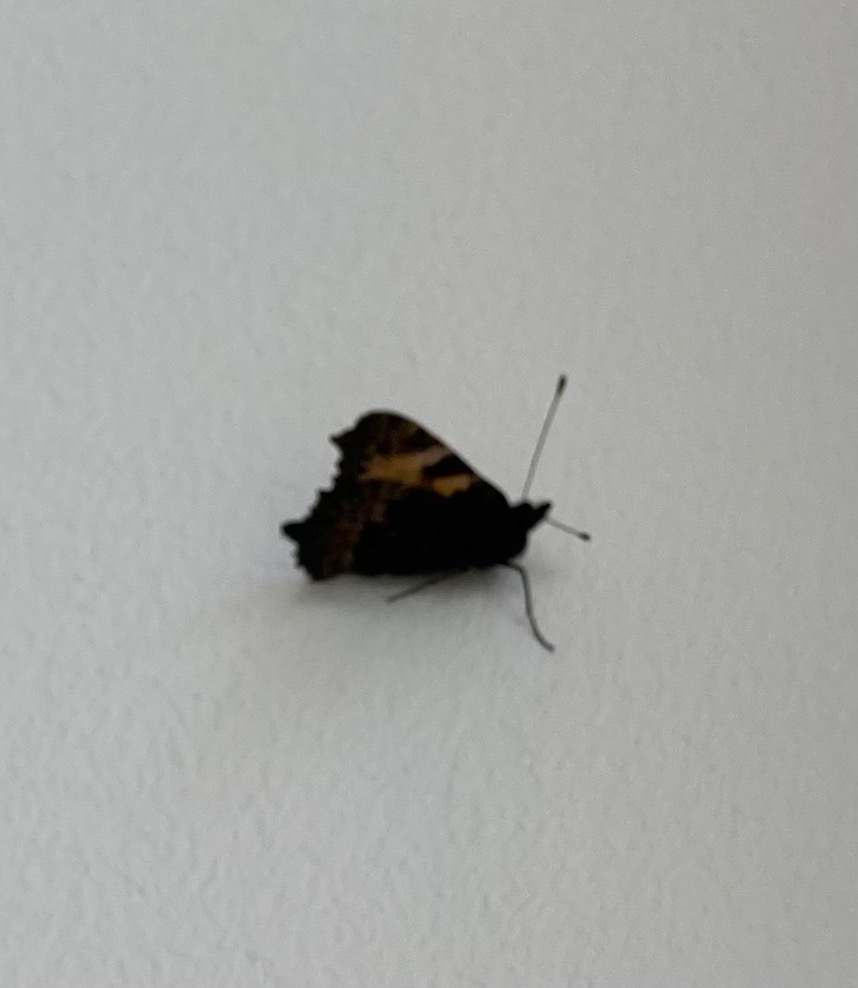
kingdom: Animalia
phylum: Arthropoda
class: Insecta
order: Lepidoptera
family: Nymphalidae
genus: Aglais
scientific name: Aglais urticae
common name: Nældens takvinge
